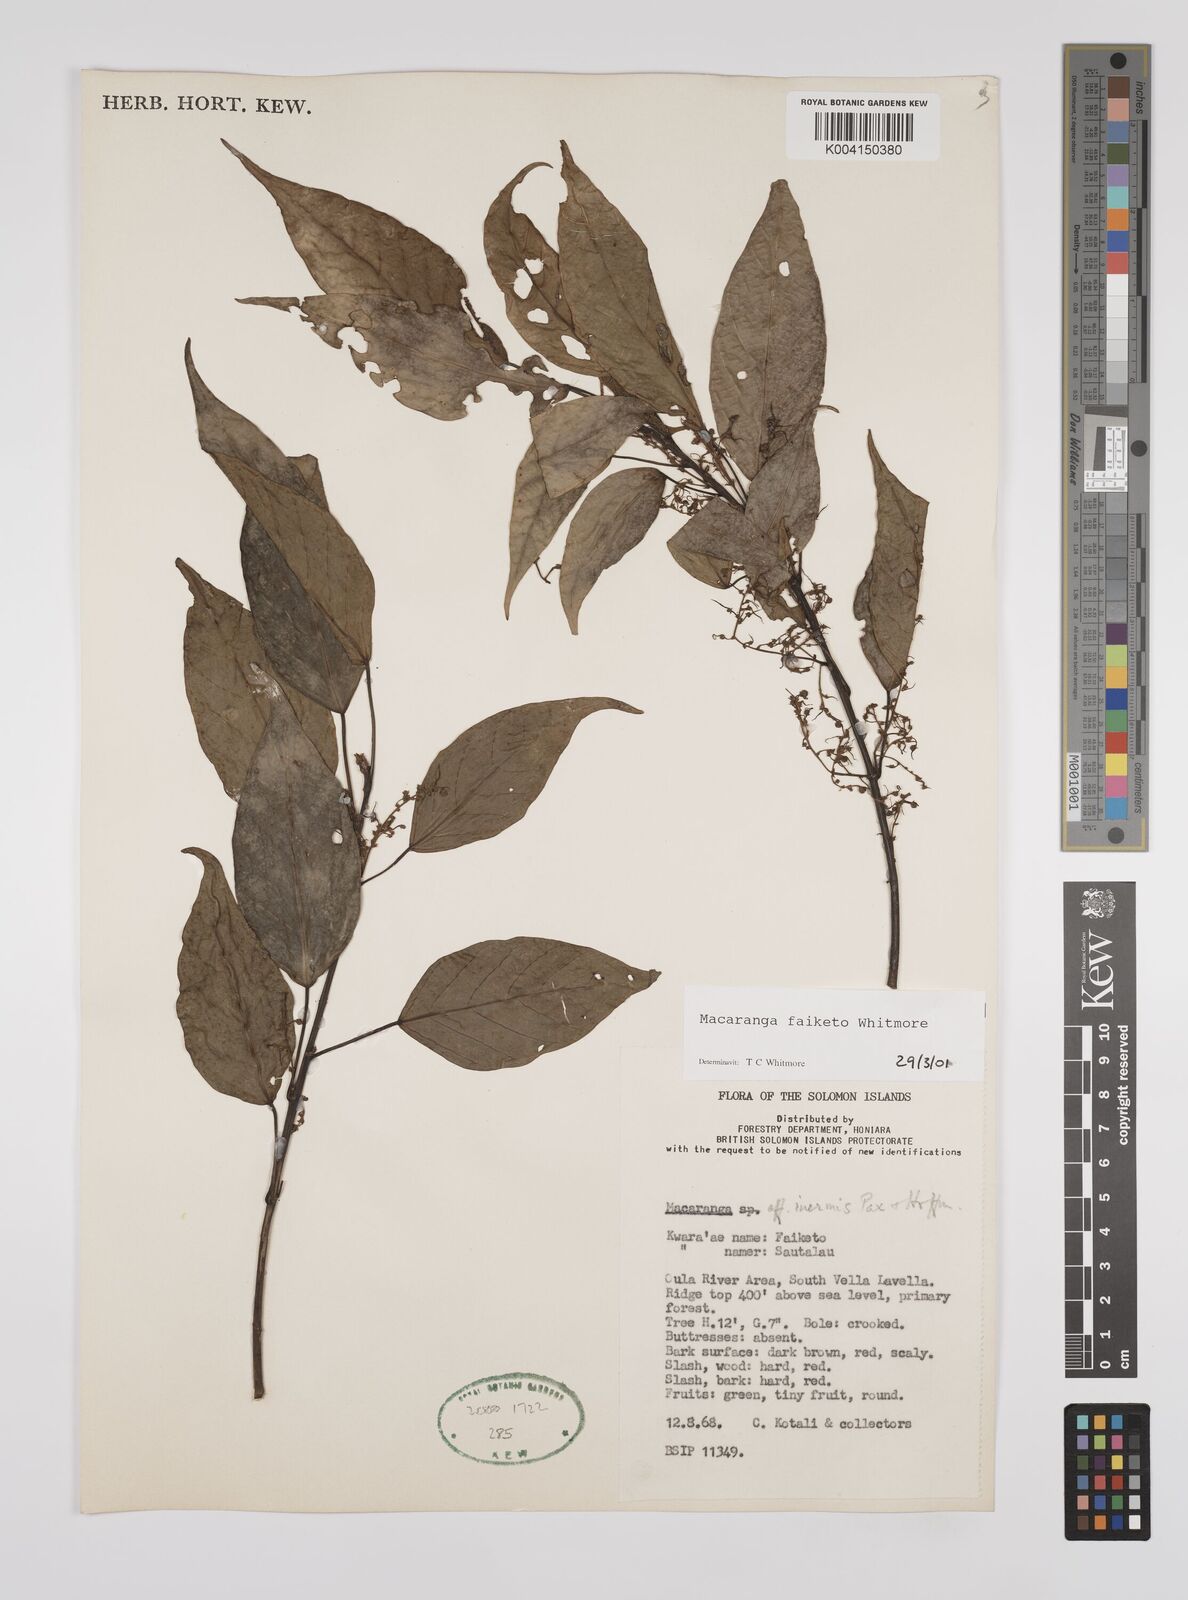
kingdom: Plantae
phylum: Tracheophyta
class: Magnoliopsida
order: Malpighiales
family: Euphorbiaceae
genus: Macaranga
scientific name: Macaranga faiketo
